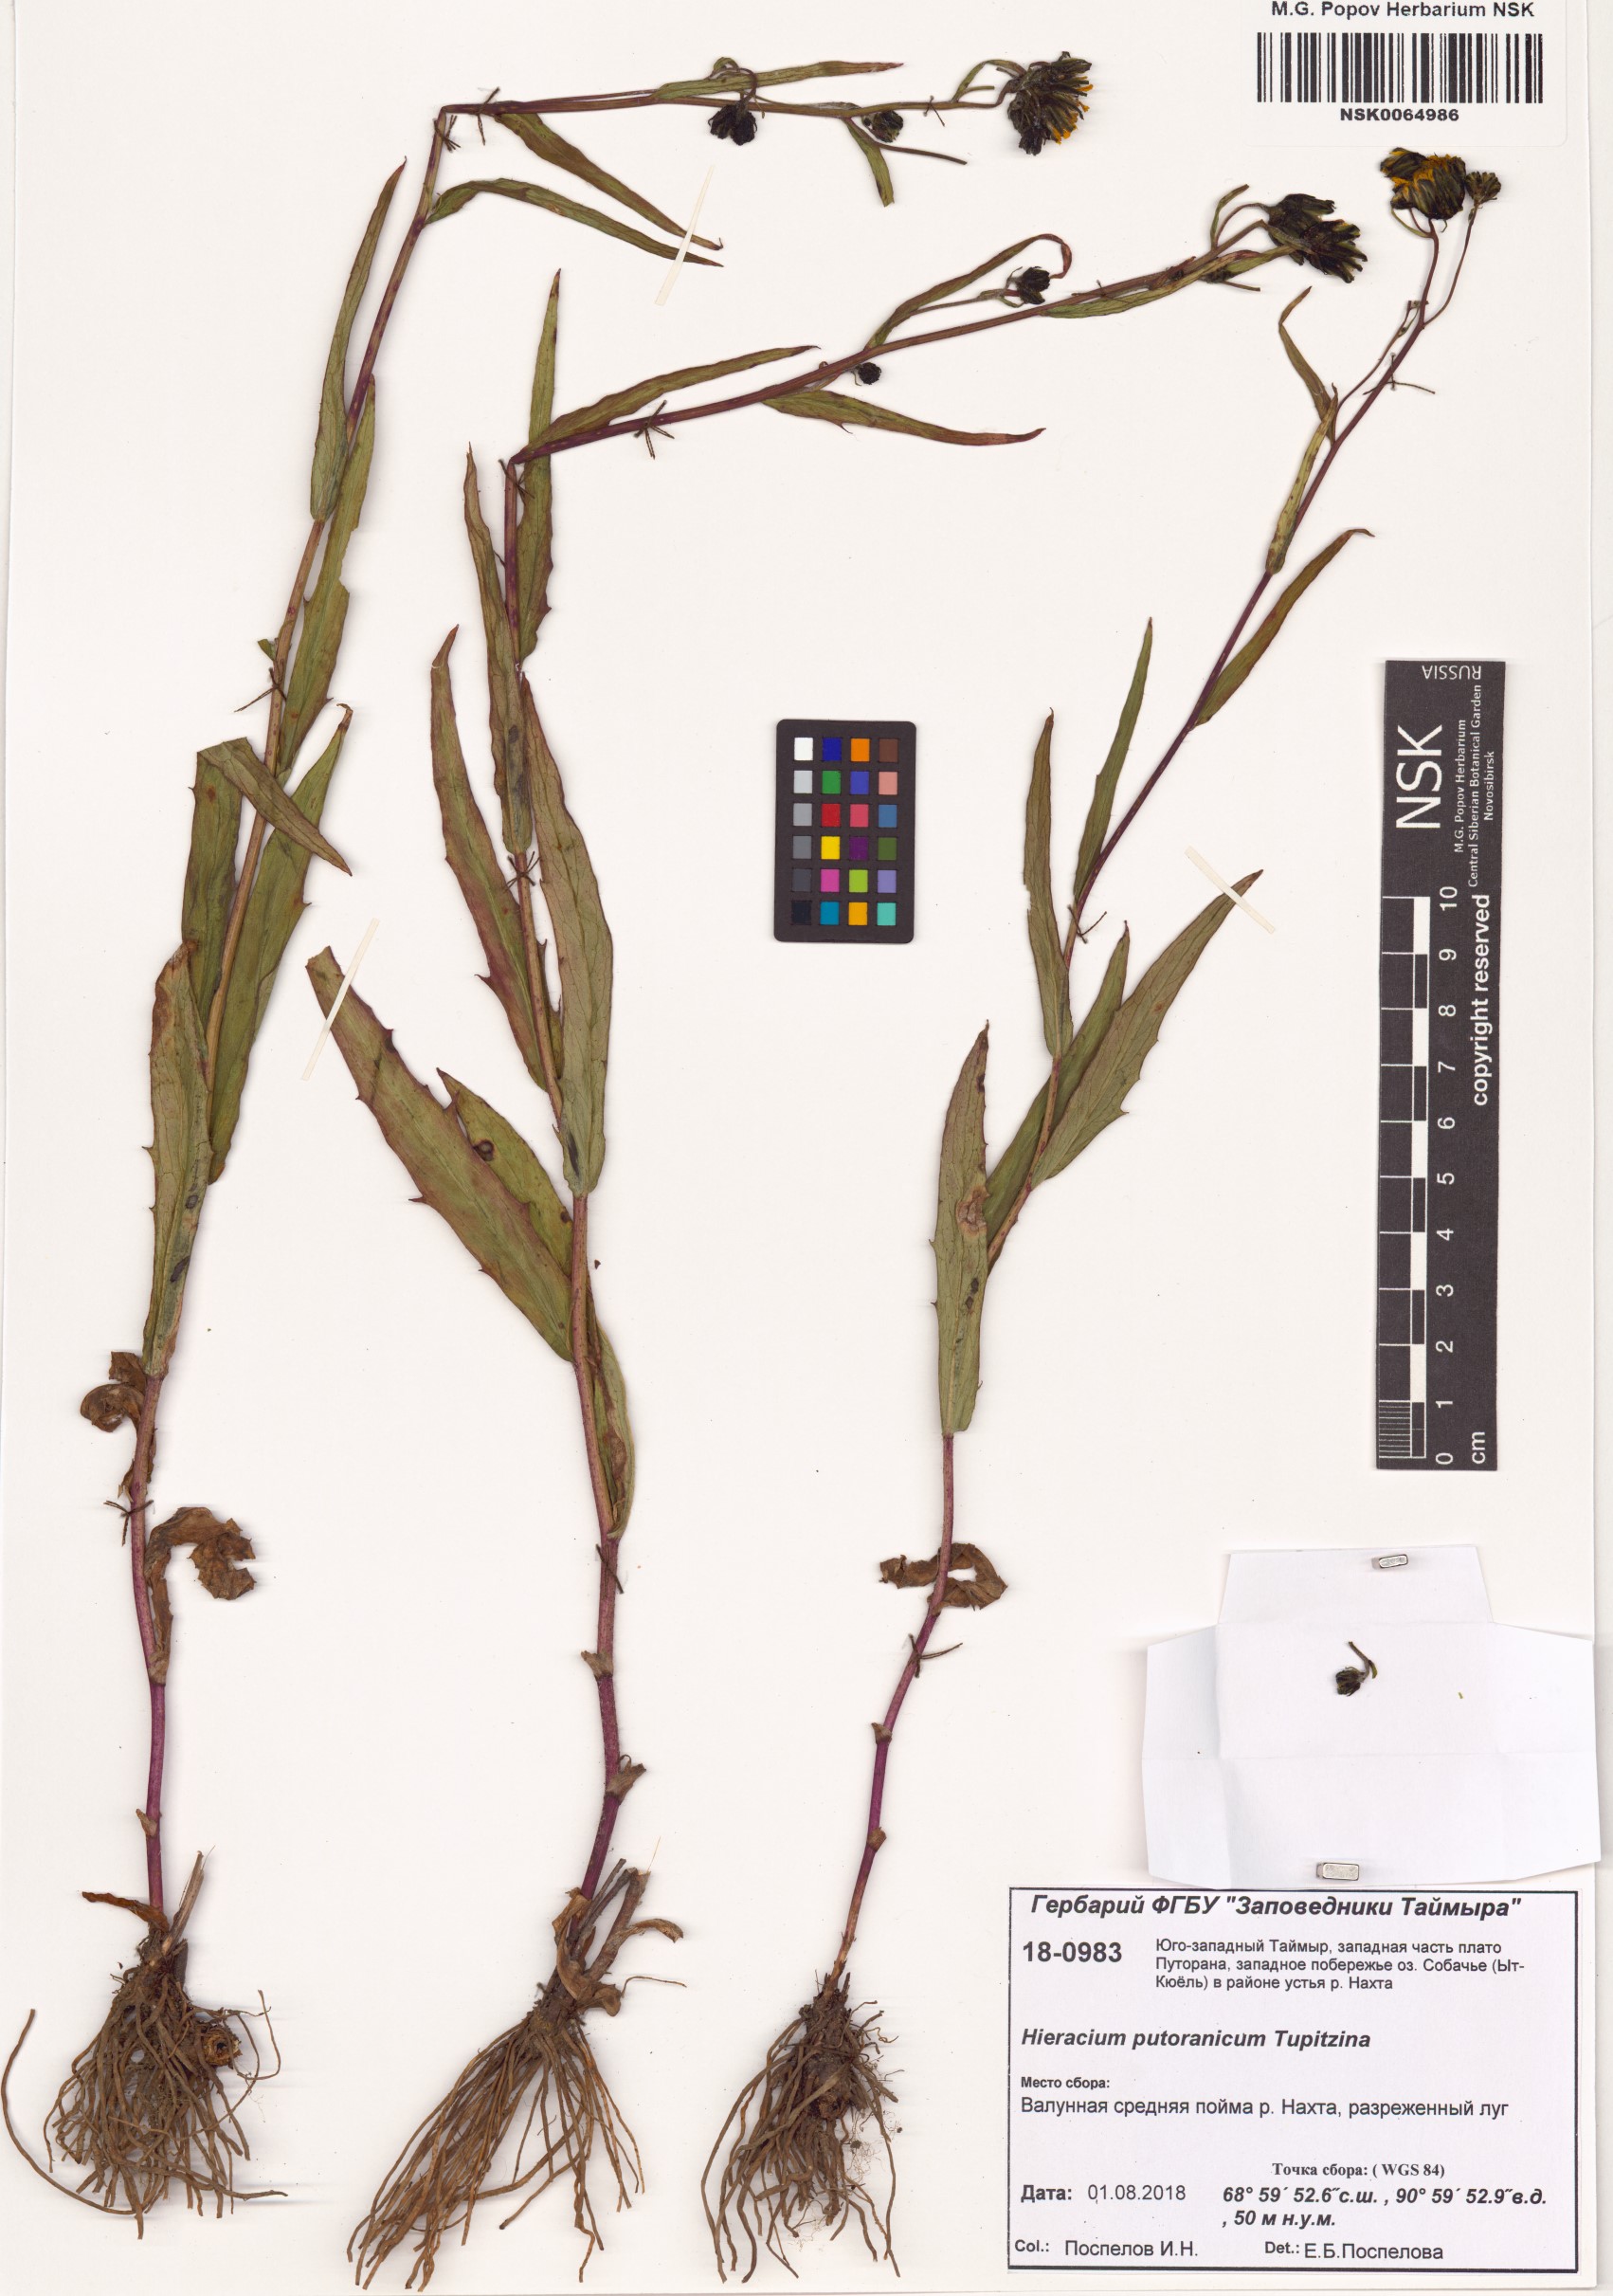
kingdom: Plantae
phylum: Tracheophyta
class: Magnoliopsida
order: Asterales
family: Asteraceae
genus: Hieracium
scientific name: Hieracium putoranicum
